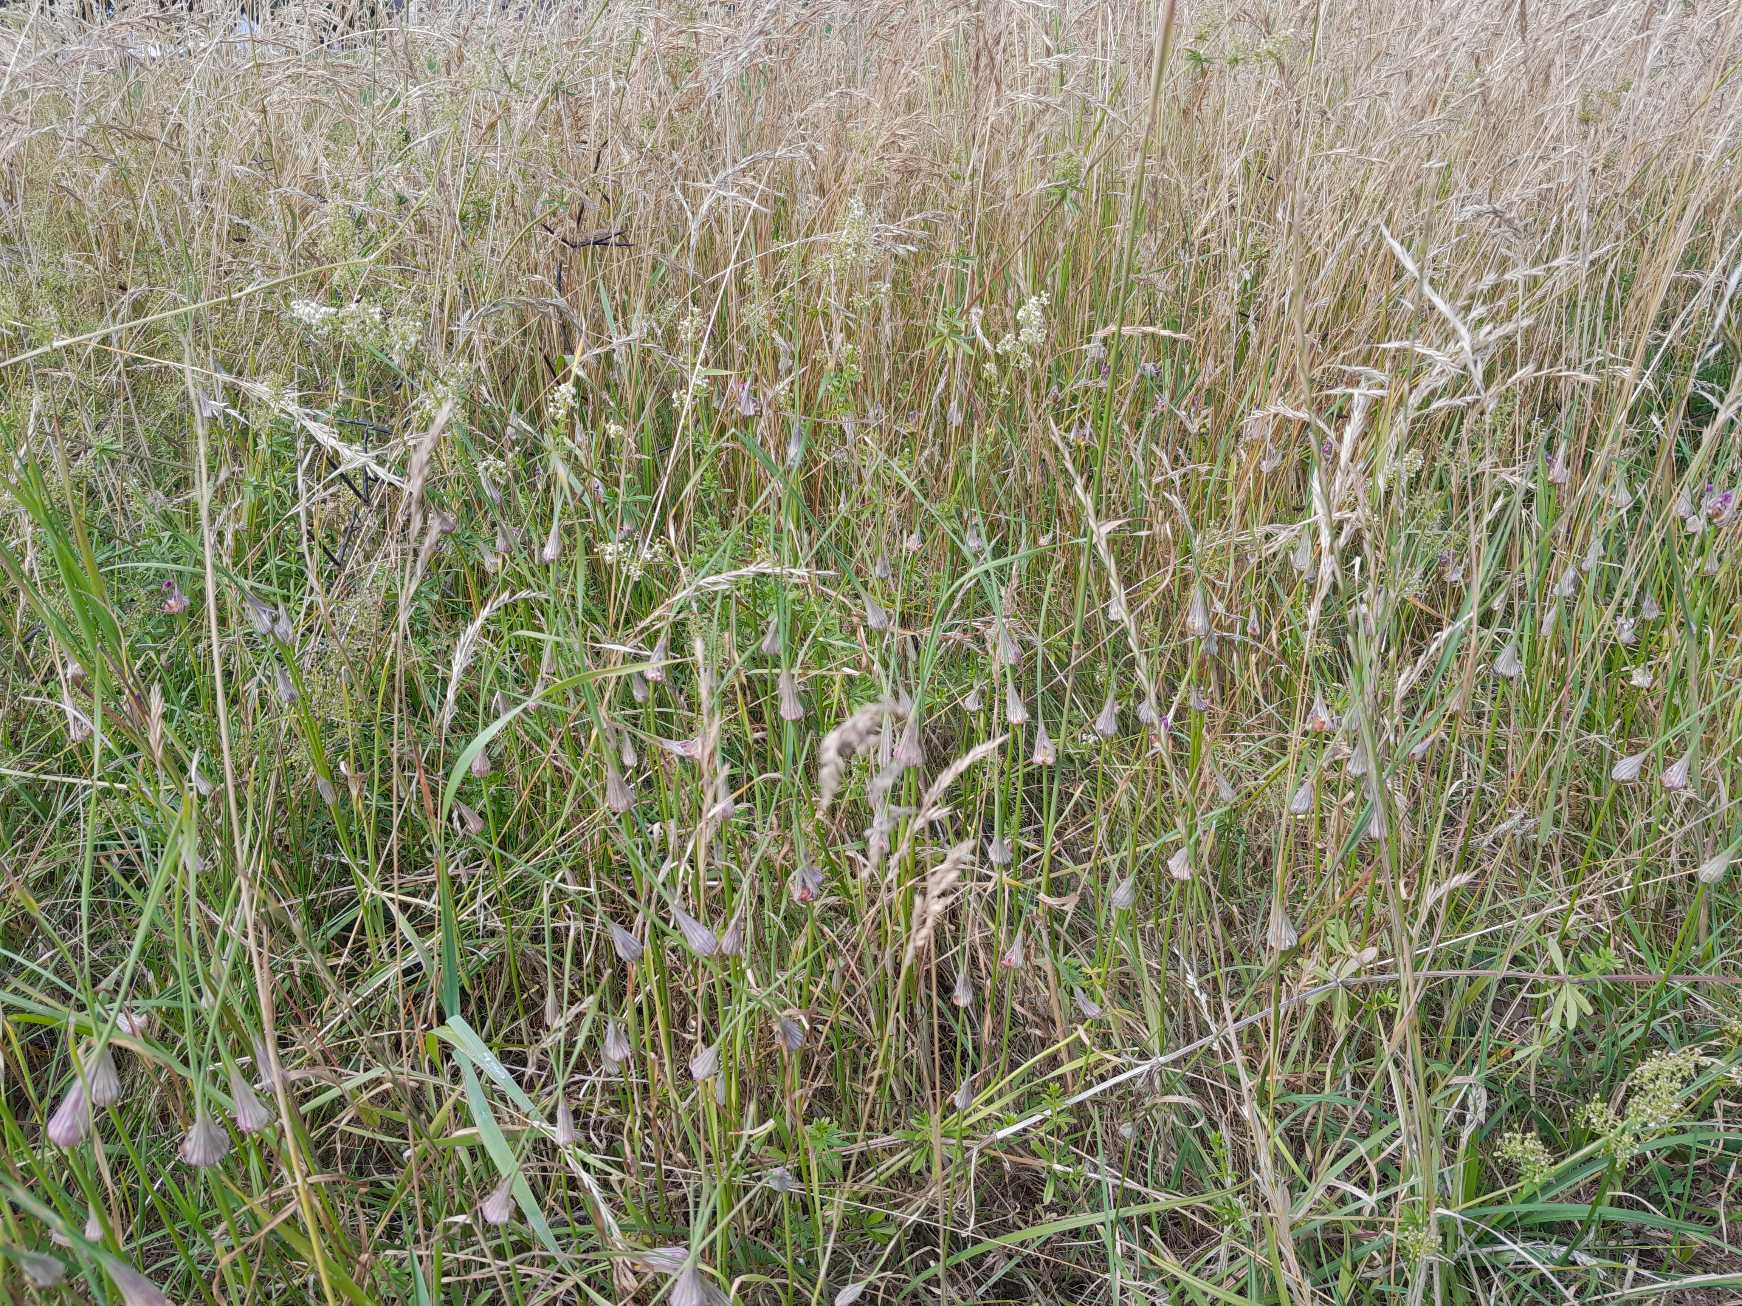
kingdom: Plantae
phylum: Tracheophyta
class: Liliopsida
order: Asparagales
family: Amaryllidaceae
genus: Allium
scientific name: Allium carinatum
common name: Kølet løg
